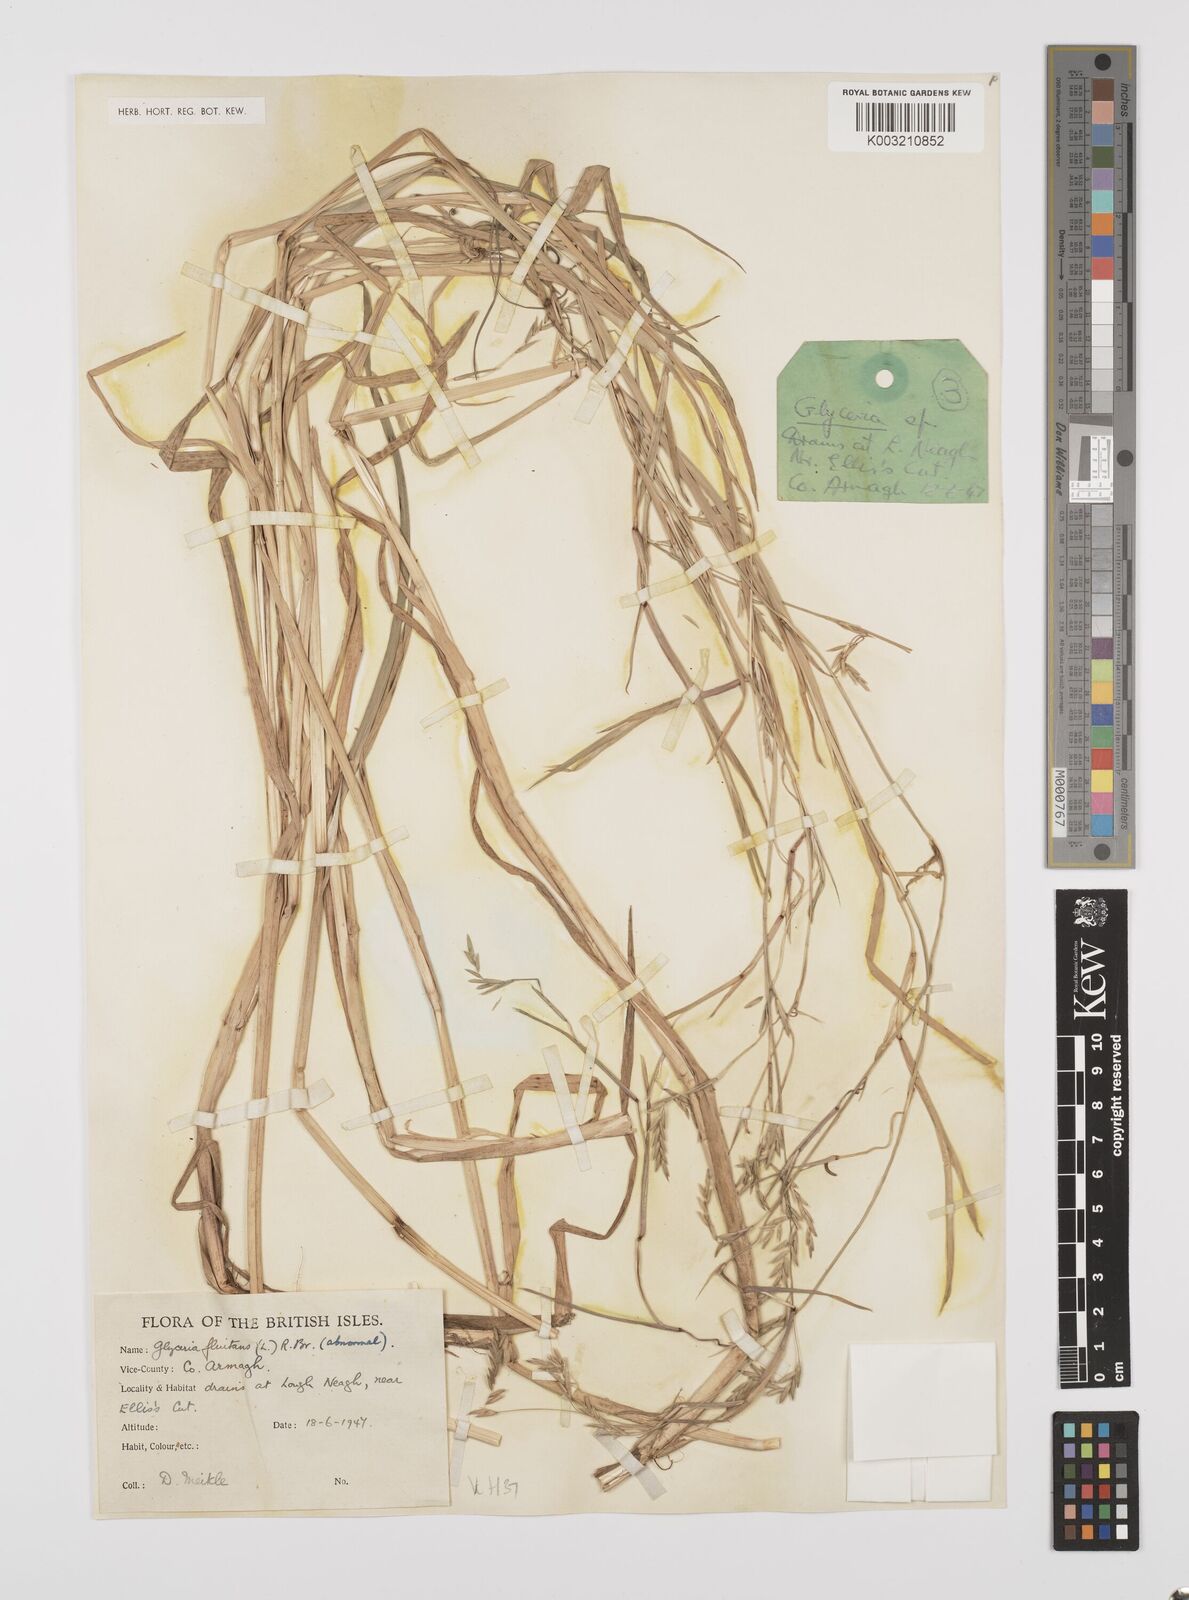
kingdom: Plantae
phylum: Tracheophyta
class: Liliopsida
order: Poales
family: Poaceae
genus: Glyceria
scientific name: Glyceria fluitans
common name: Floating sweet-grass
